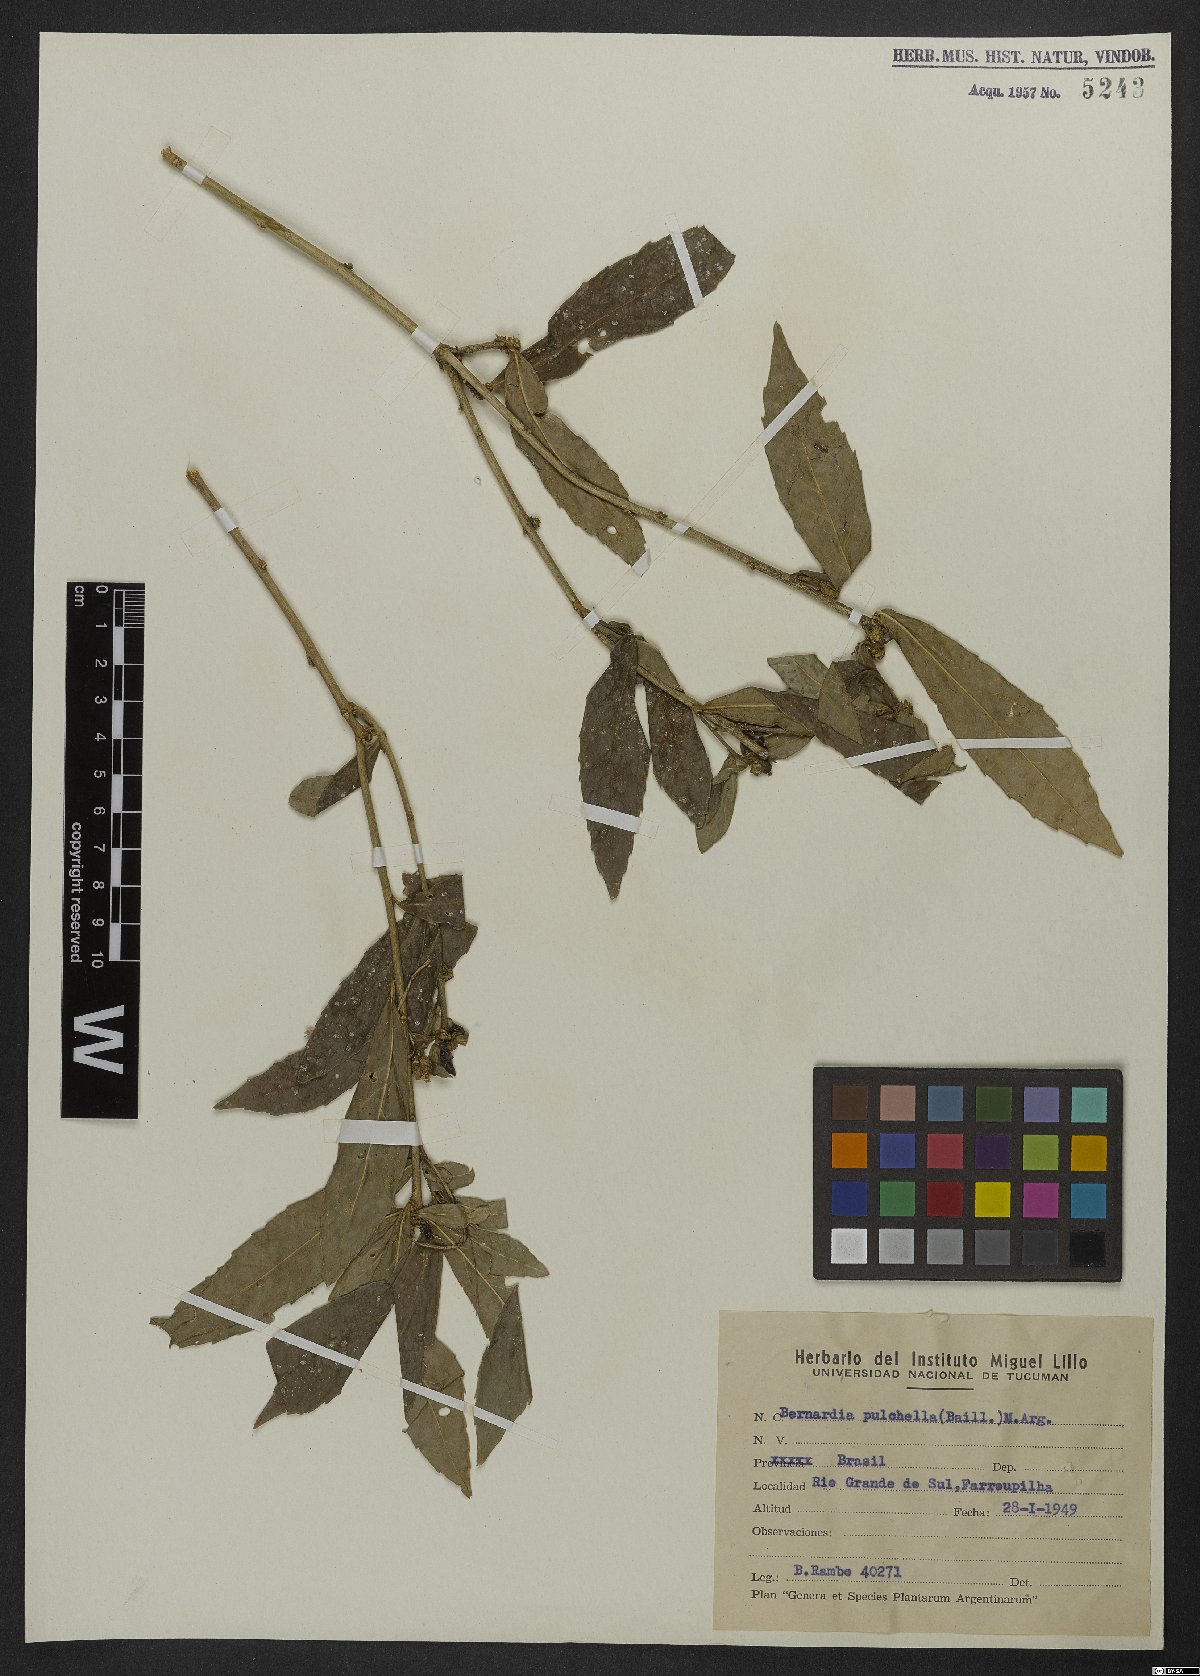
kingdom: Plantae
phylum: Tracheophyta
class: Magnoliopsida
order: Malpighiales
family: Euphorbiaceae
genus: Bernardia
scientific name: Bernardia pulchella
